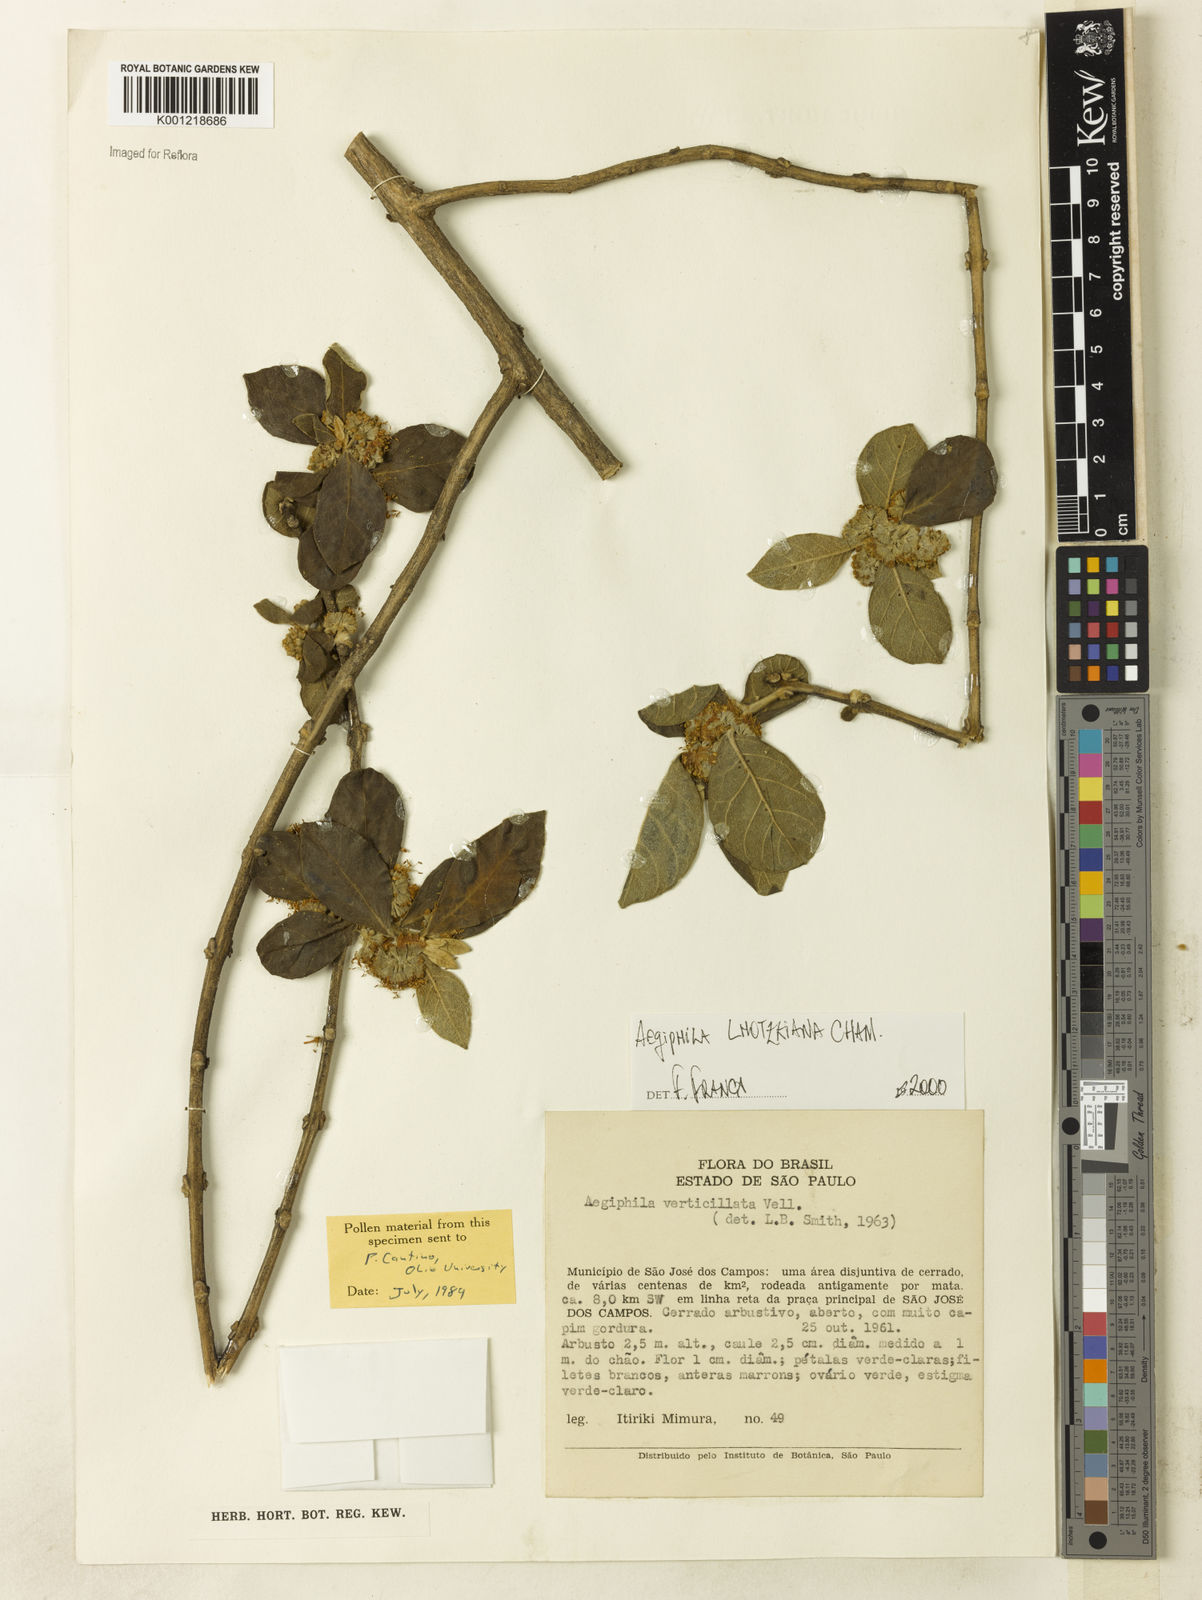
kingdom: Plantae
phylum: Tracheophyta
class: Magnoliopsida
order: Lamiales
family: Lamiaceae
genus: Aegiphila
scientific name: Aegiphila verticillata
